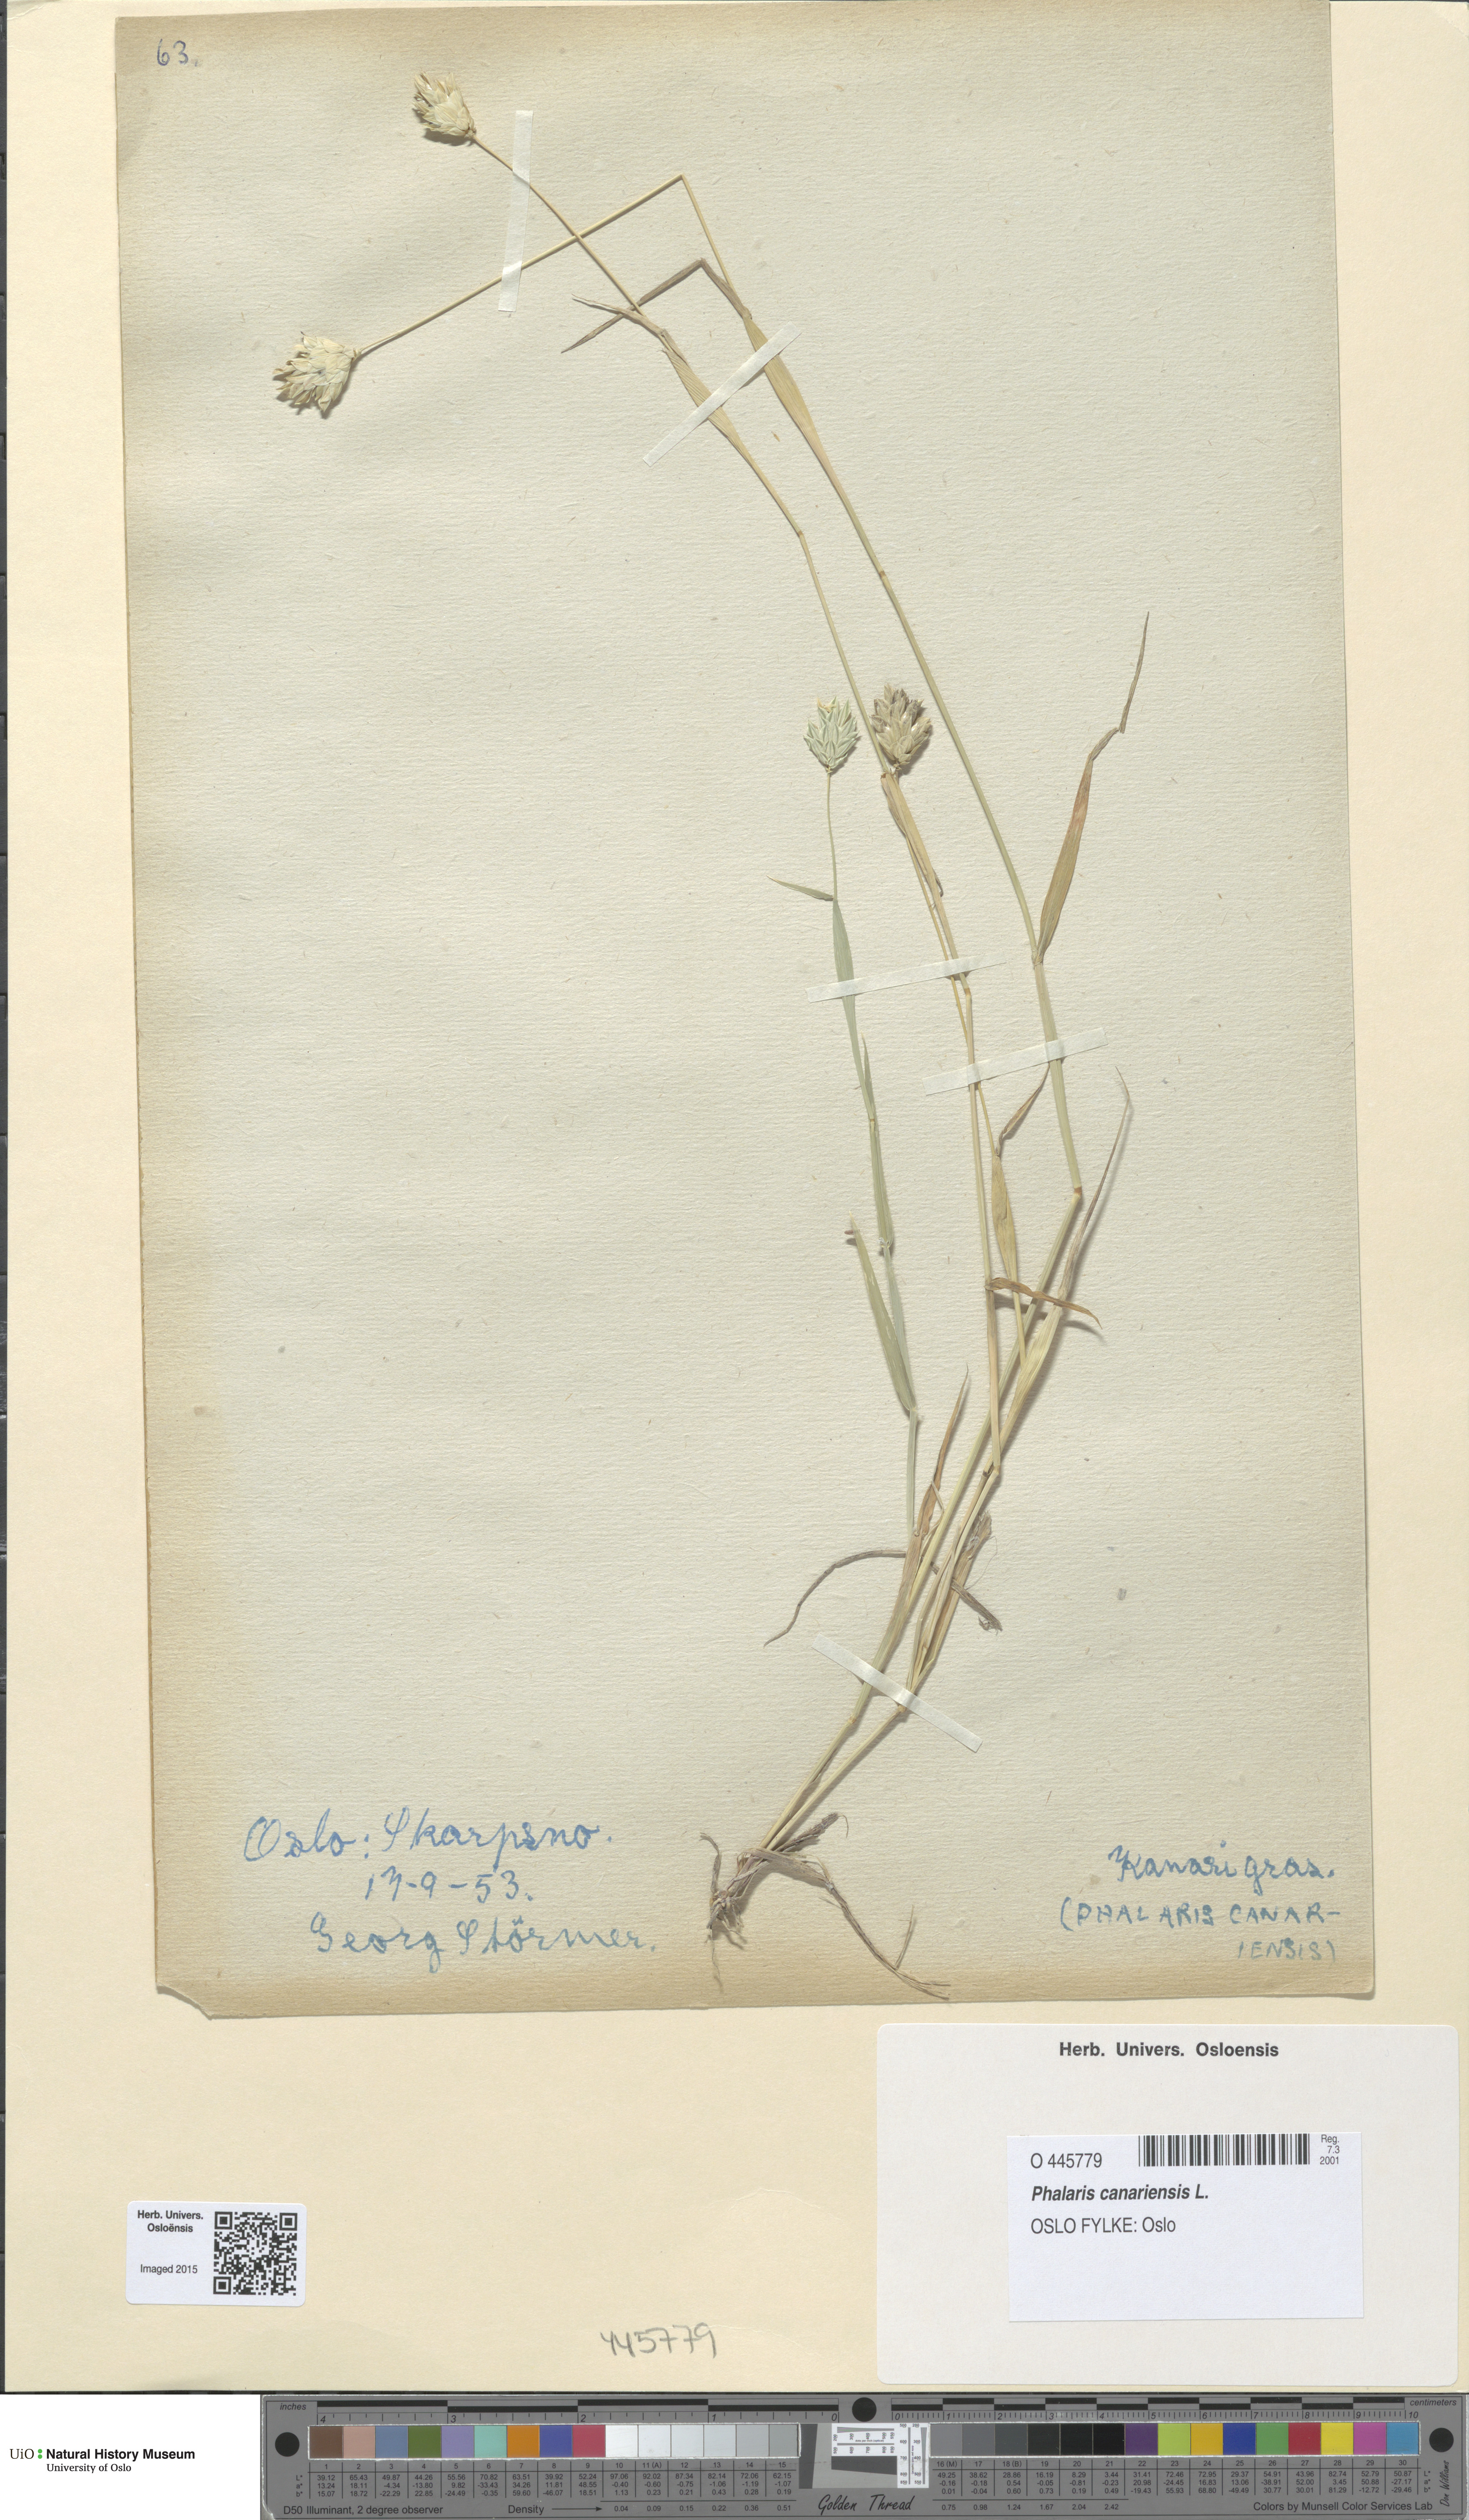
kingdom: Plantae
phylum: Tracheophyta
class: Liliopsida
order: Poales
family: Poaceae
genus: Phalaris
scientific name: Phalaris canariensis
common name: Annual canarygrass
